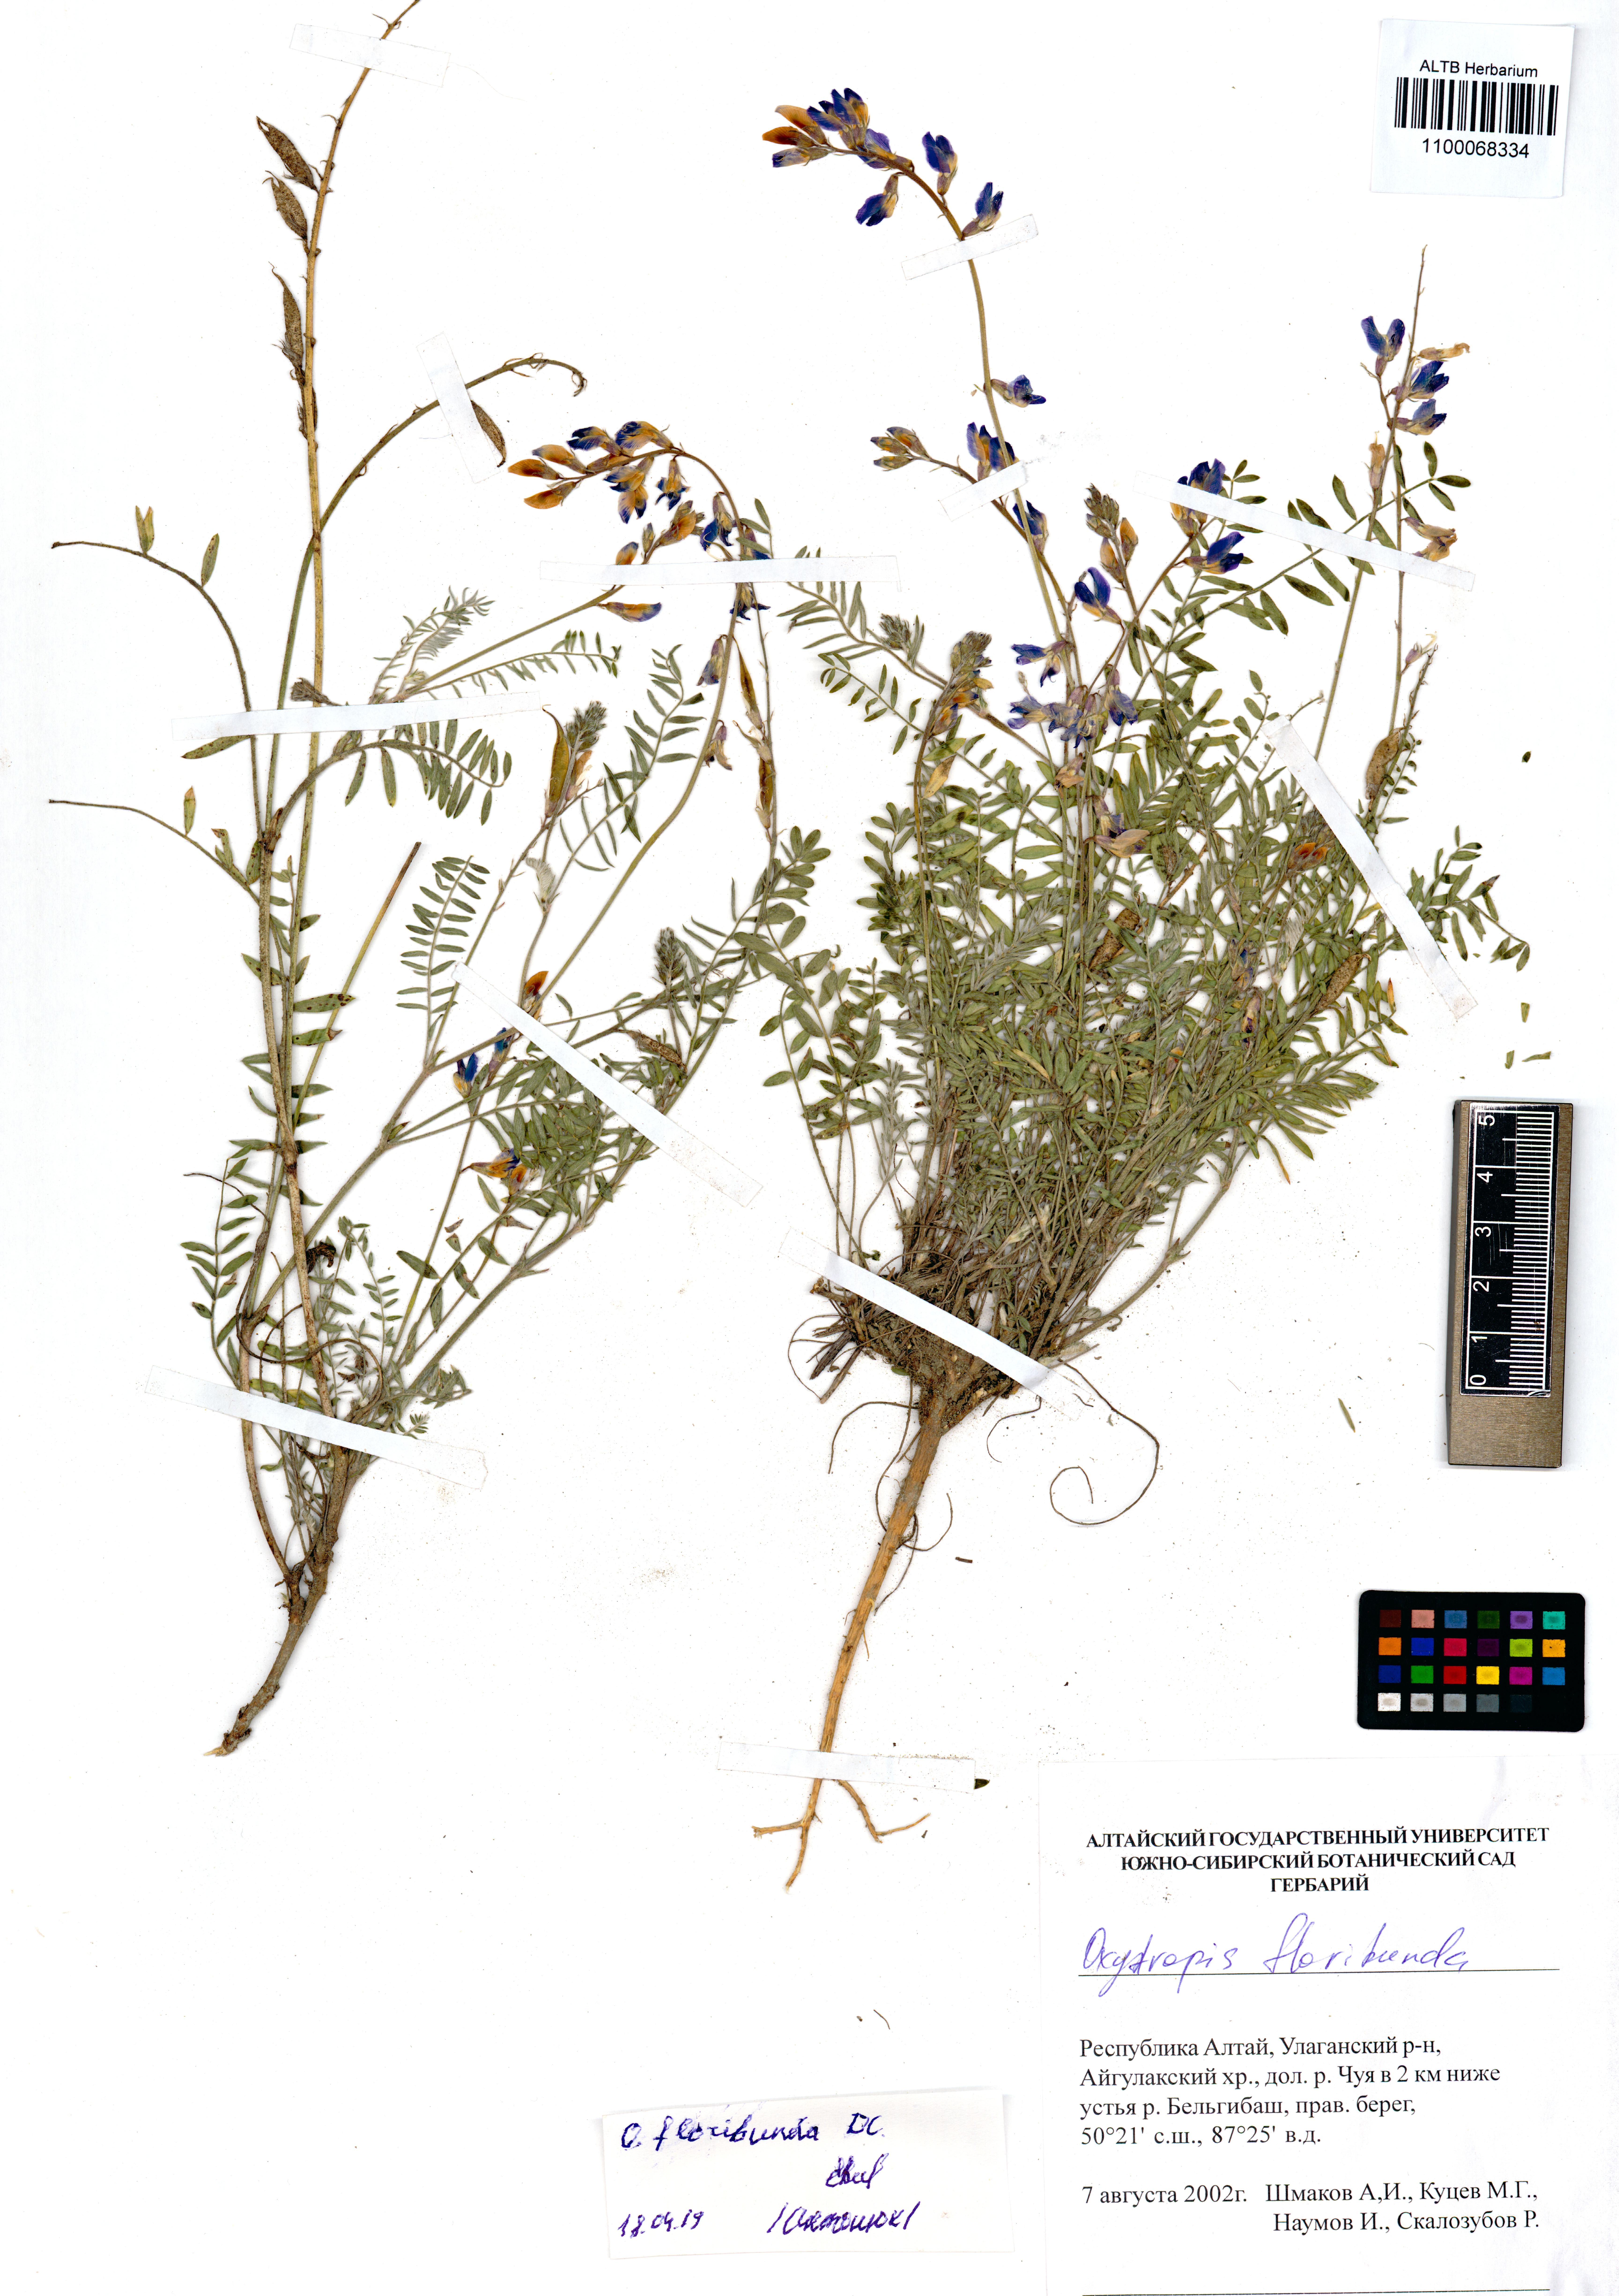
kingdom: Plantae
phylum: Tracheophyta
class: Magnoliopsida
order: Fabales
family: Fabaceae
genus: Oxytropis
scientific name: Oxytropis floribunda
